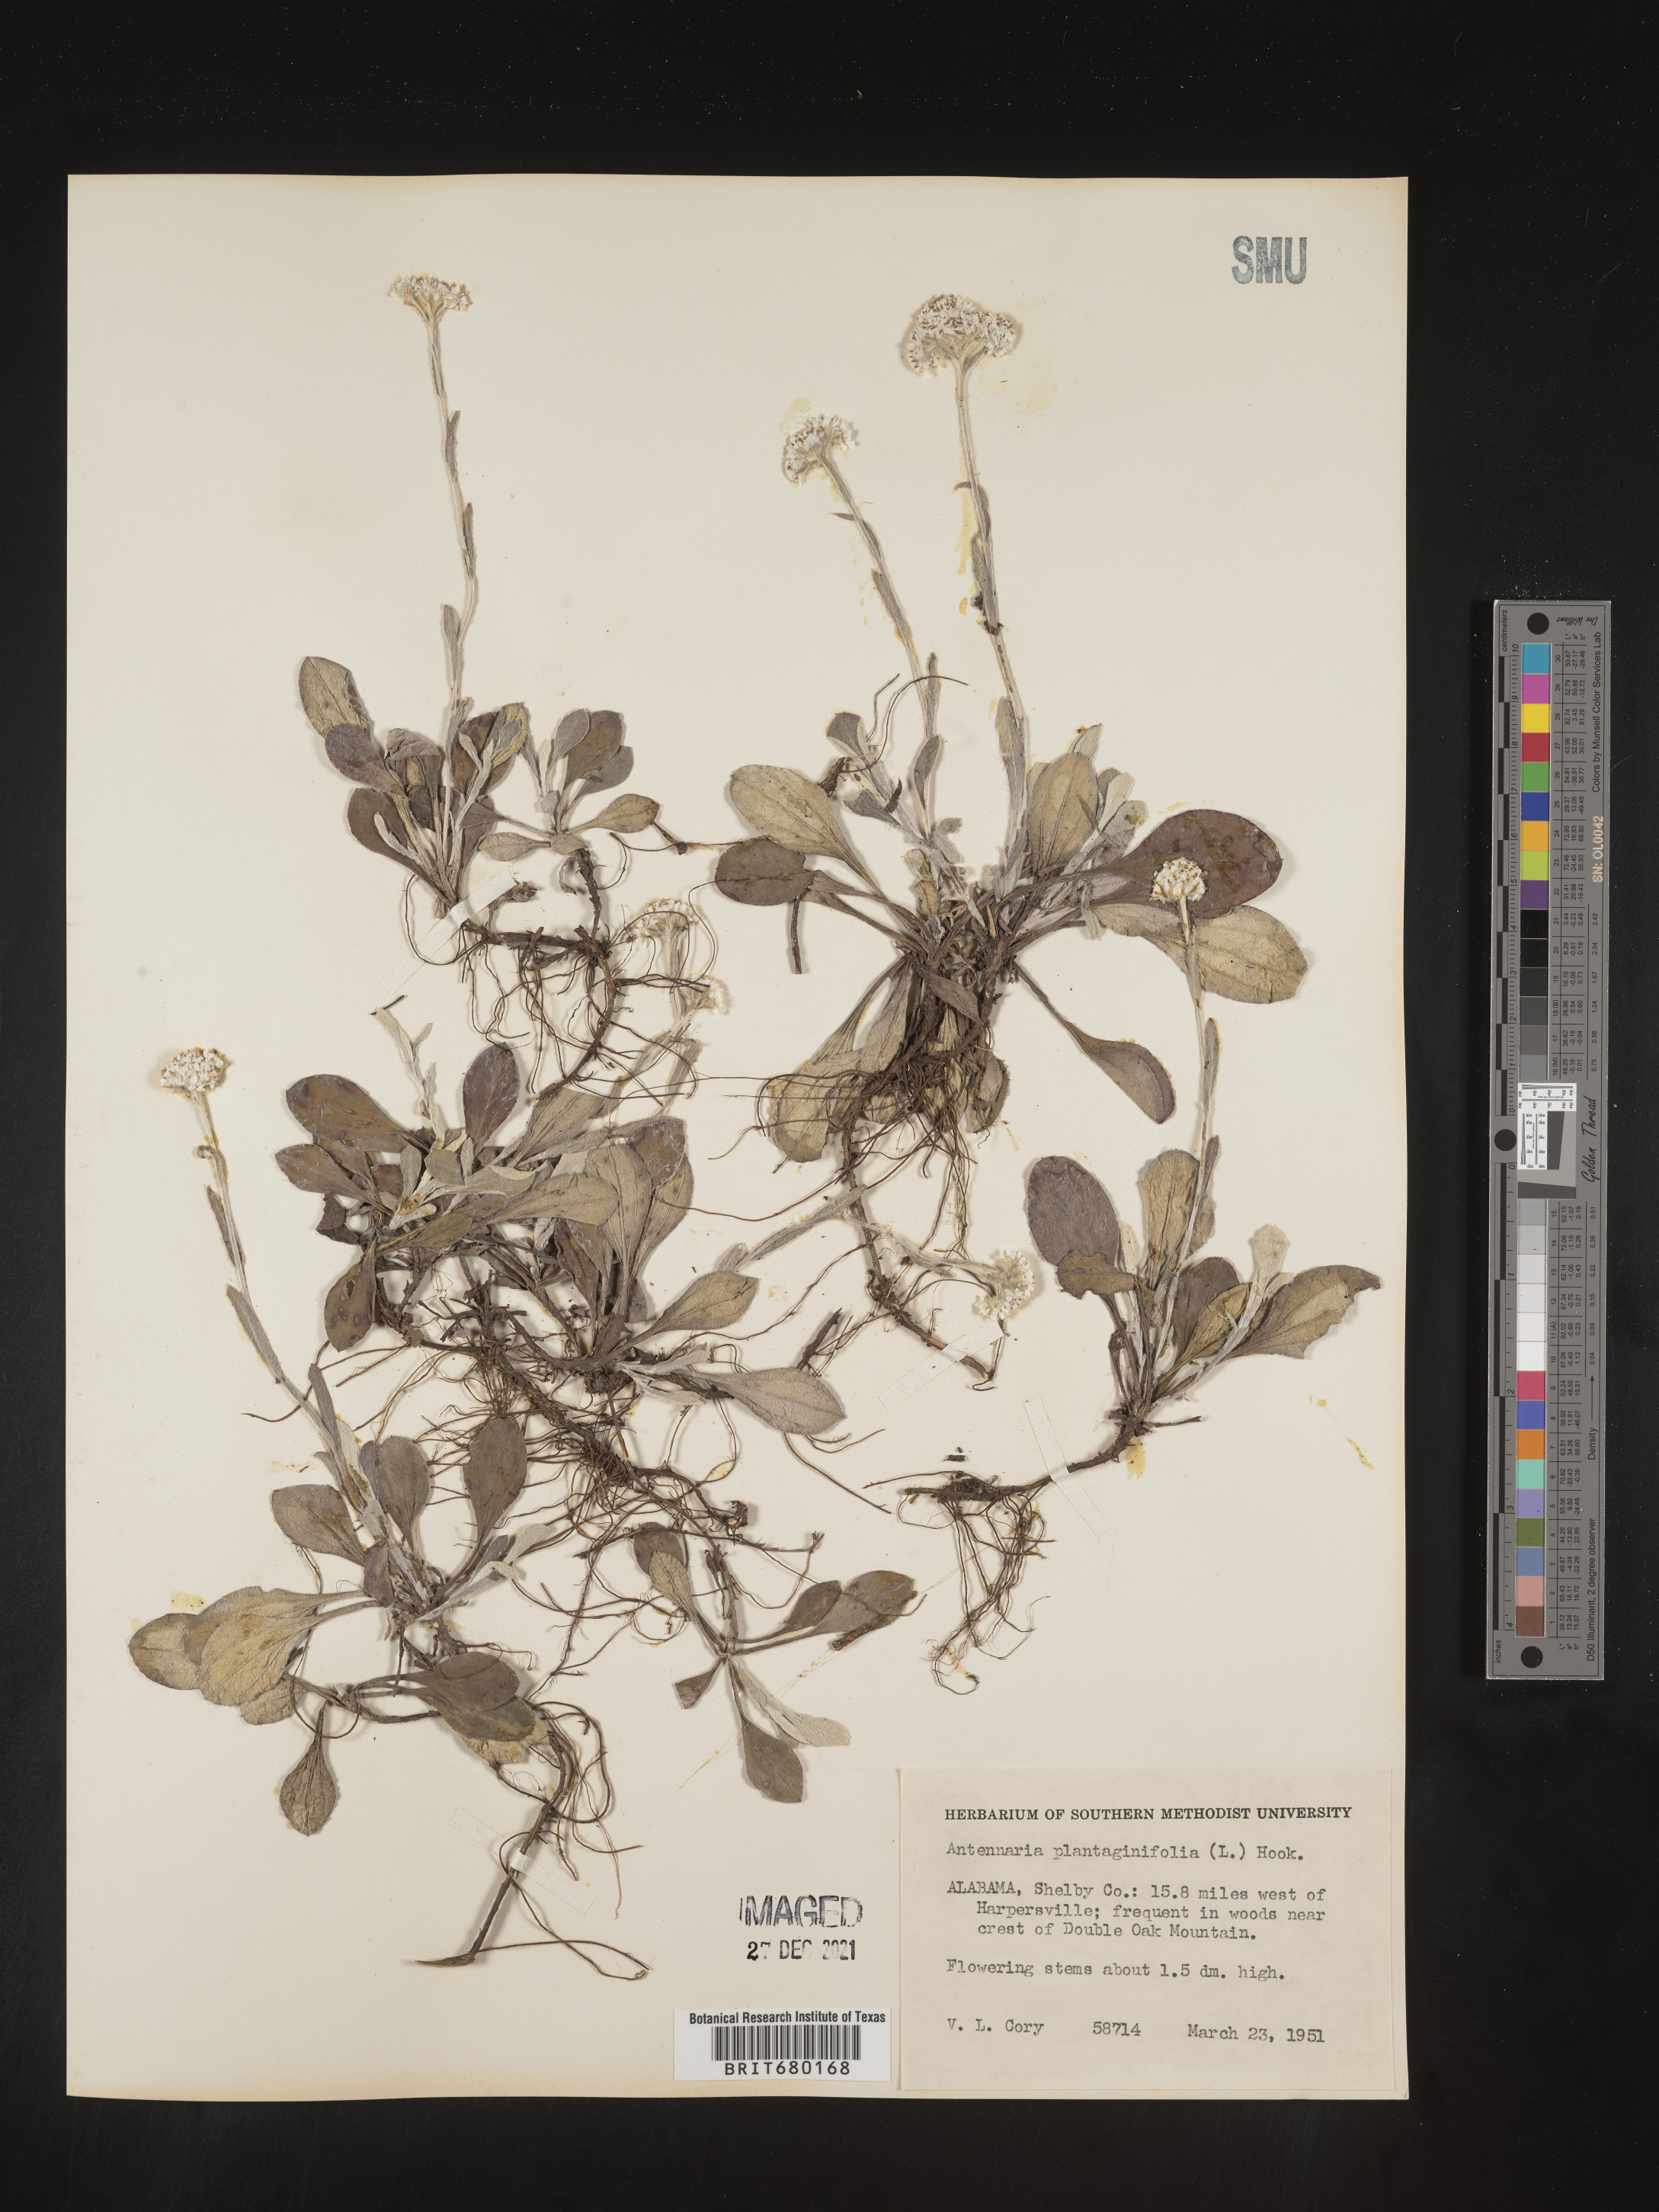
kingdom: Plantae
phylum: Tracheophyta
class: Magnoliopsida
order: Asterales
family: Asteraceae
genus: Antennaria
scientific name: Antennaria plantaginifolia
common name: Plantain-leaved pussytoes
